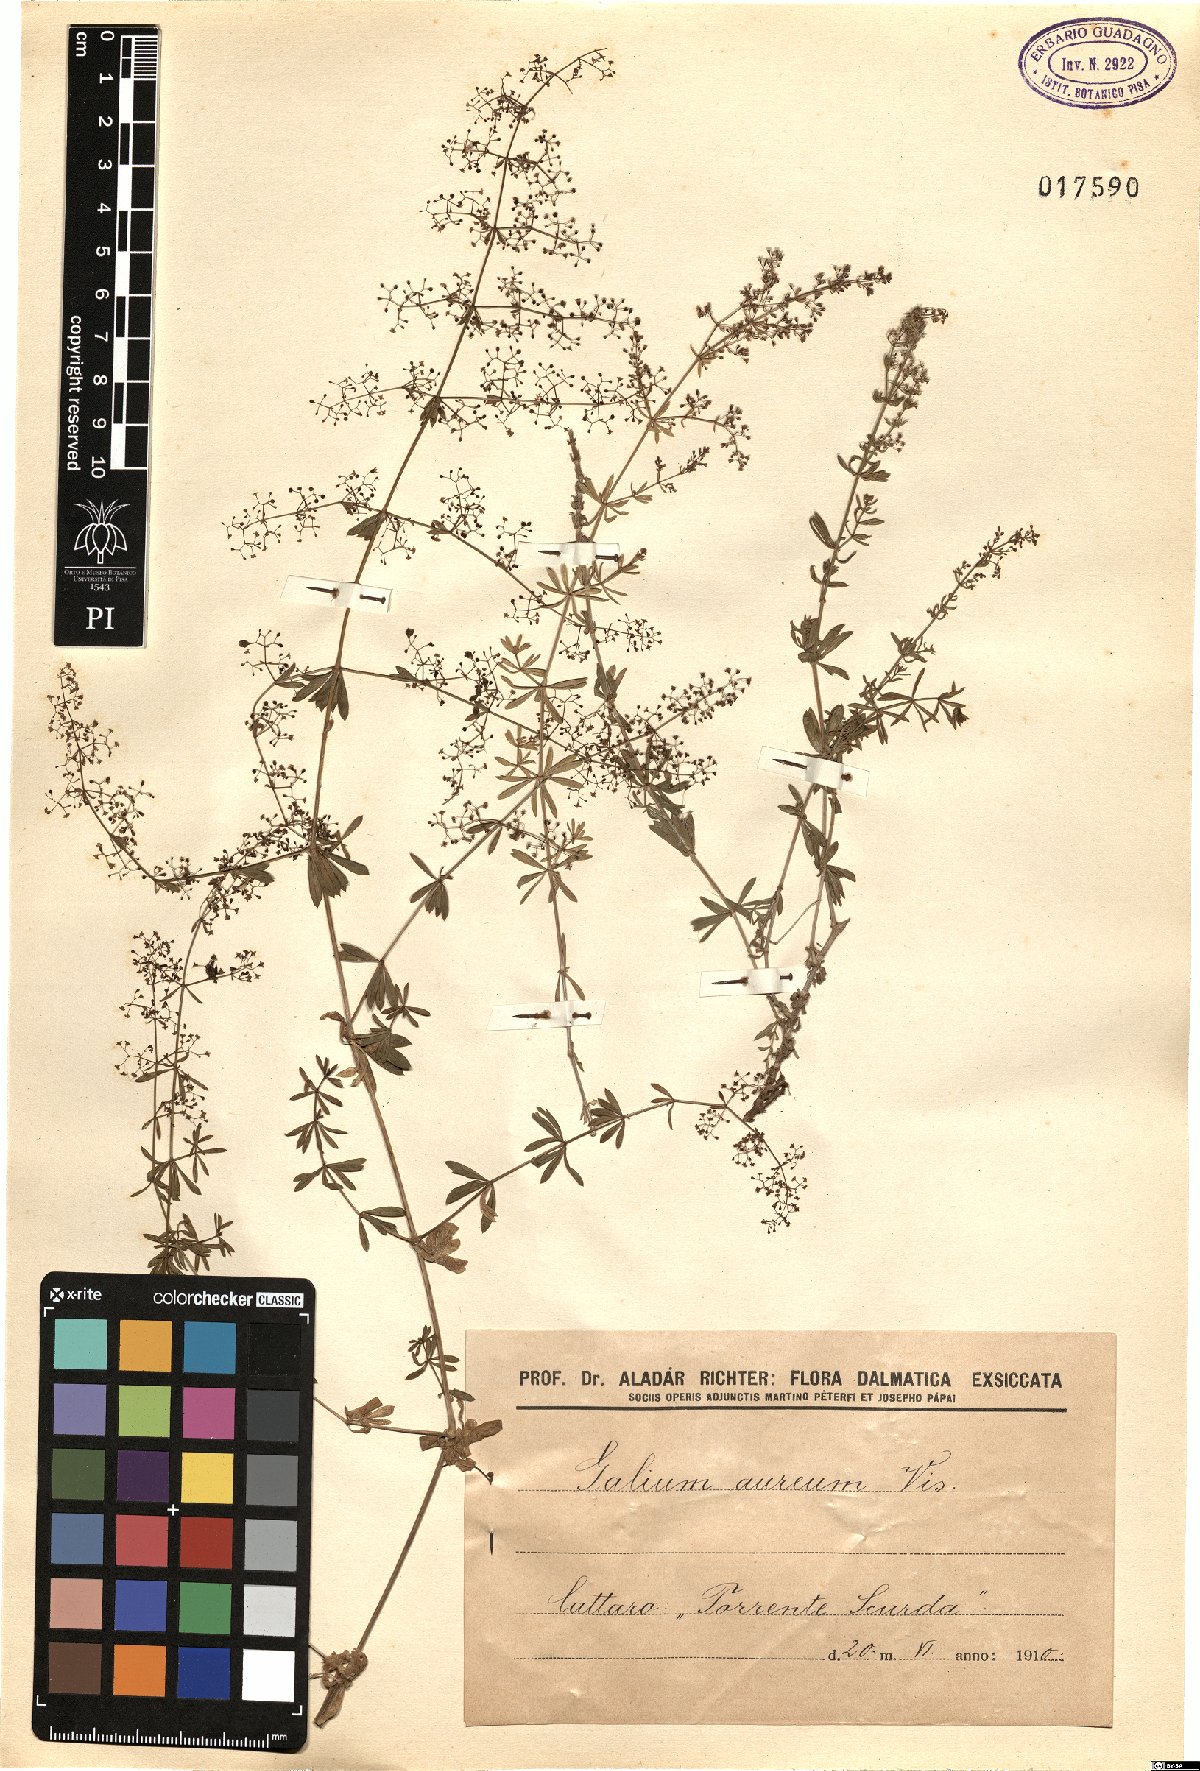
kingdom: Plantae
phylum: Tracheophyta
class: Magnoliopsida
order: Gentianales
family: Rubiaceae
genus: Galium
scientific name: Galium firmum
